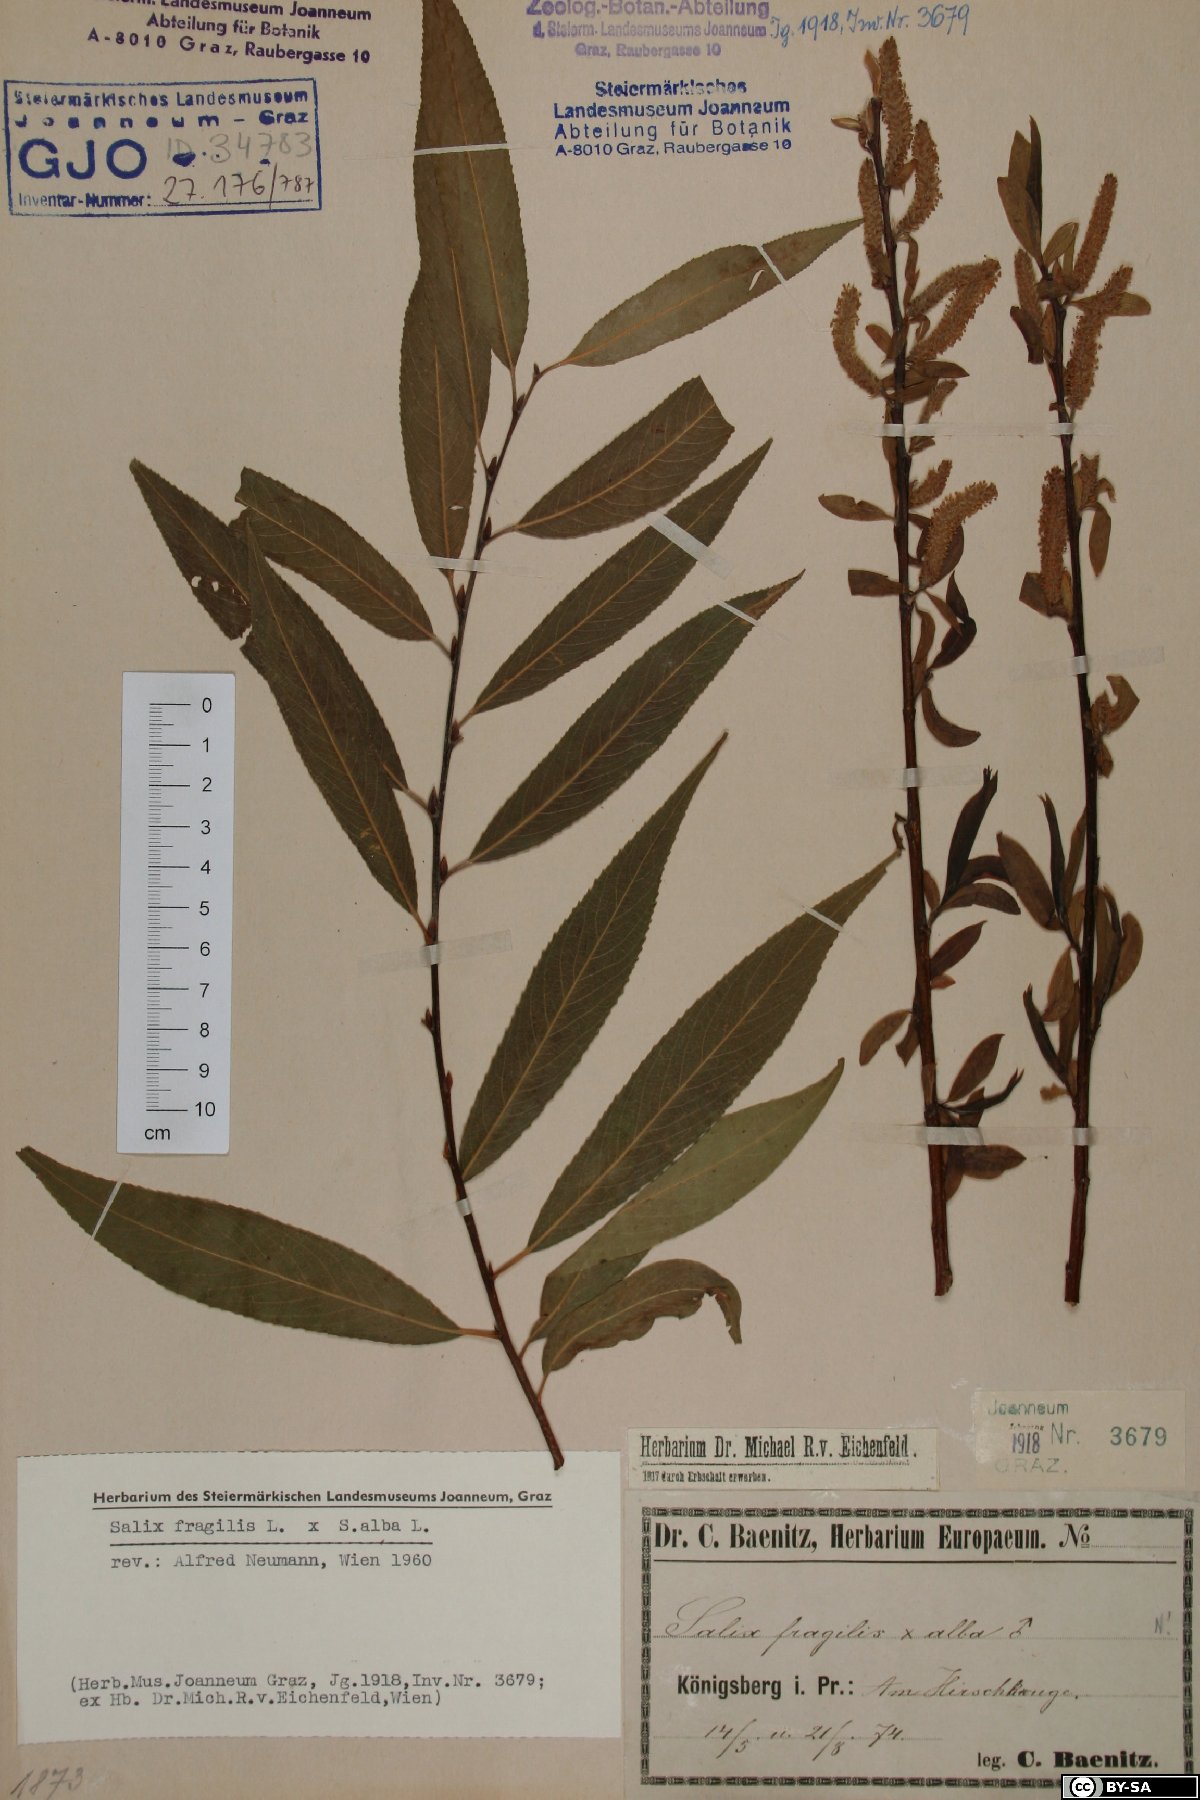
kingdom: Plantae
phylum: Tracheophyta
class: Magnoliopsida
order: Malpighiales
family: Salicaceae
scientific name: Salicaceae
